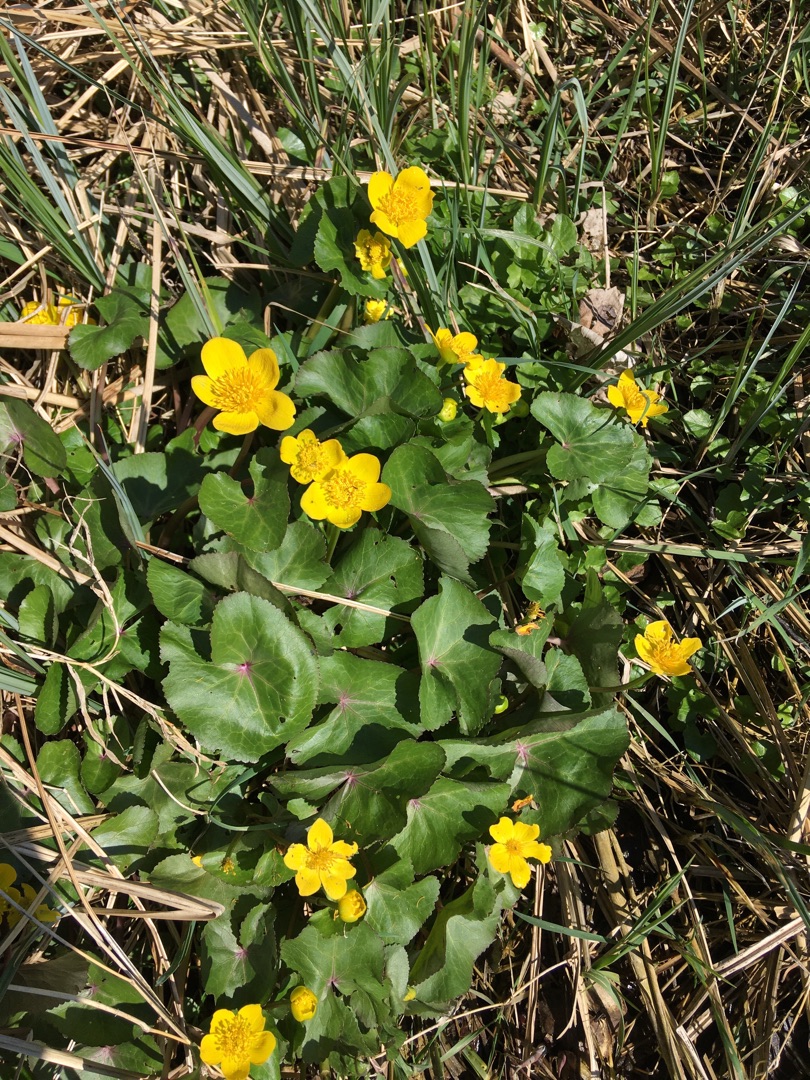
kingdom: Plantae
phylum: Tracheophyta
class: Magnoliopsida
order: Ranunculales
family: Ranunculaceae
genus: Caltha
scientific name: Caltha palustris
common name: Eng-kabbeleje
